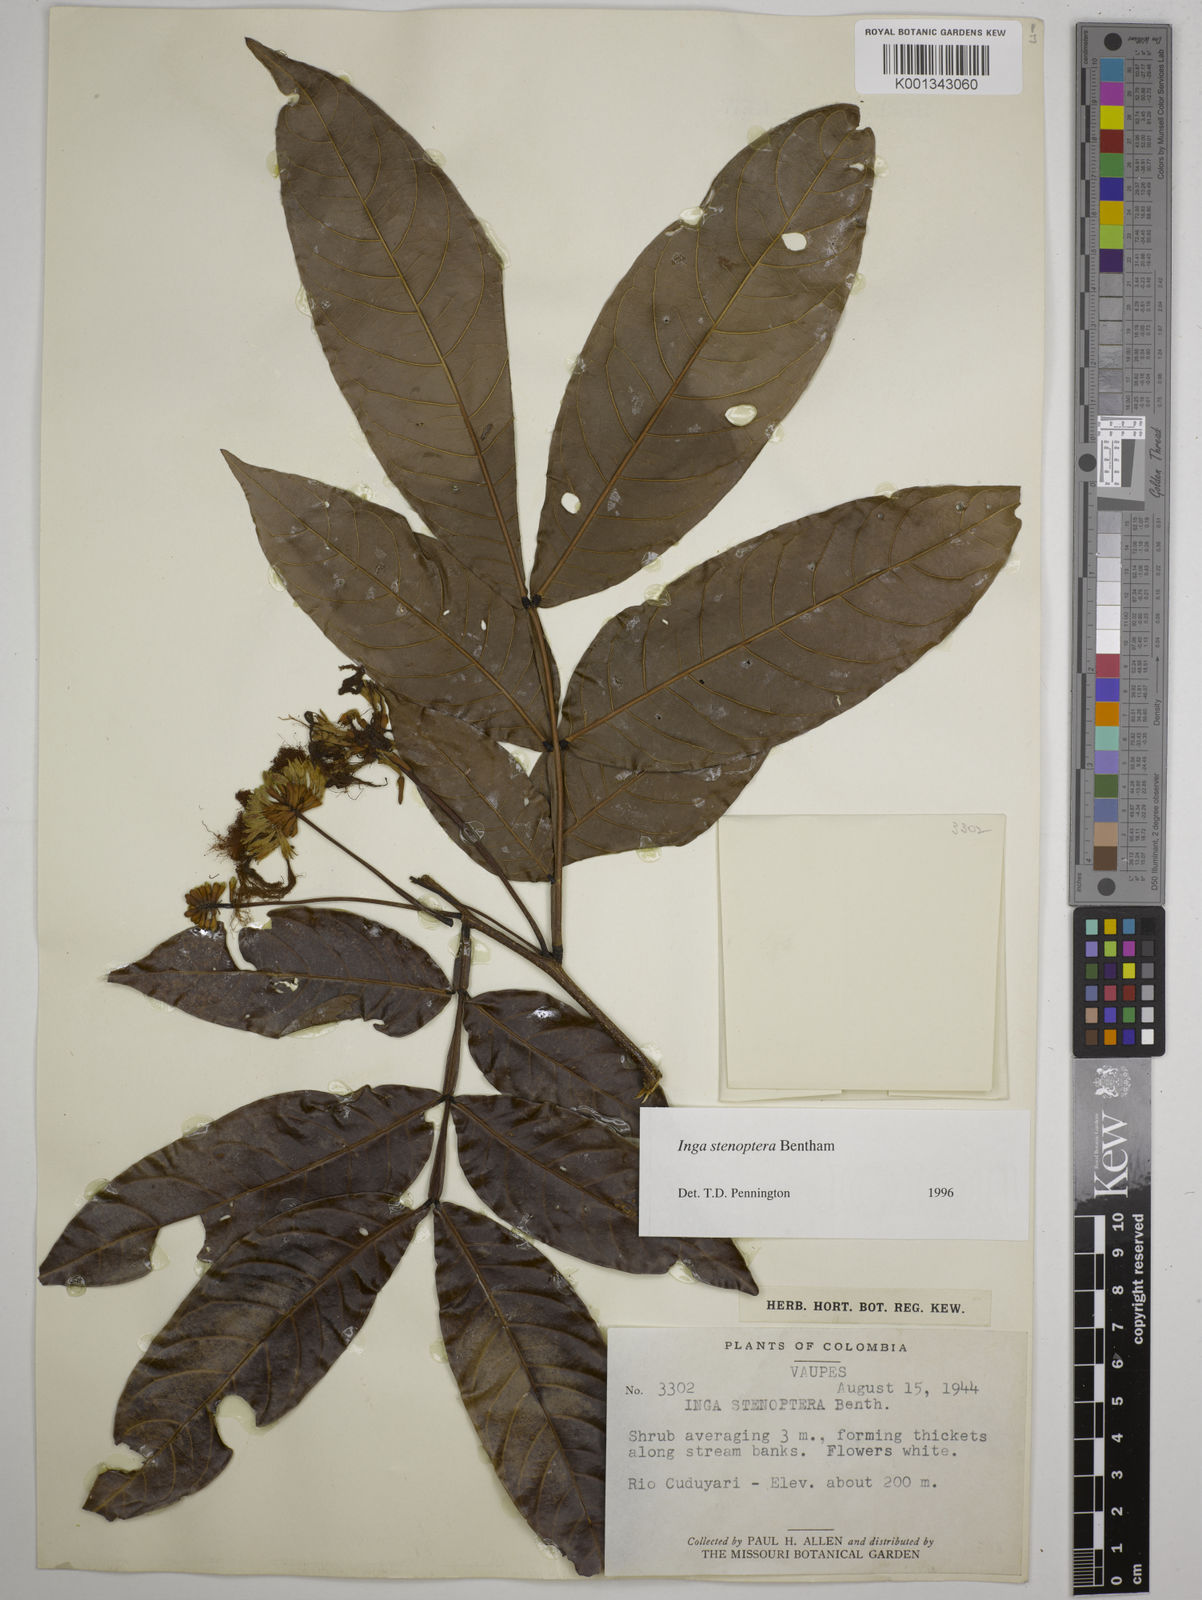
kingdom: Plantae
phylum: Tracheophyta
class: Magnoliopsida
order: Fabales
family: Fabaceae
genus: Inga
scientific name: Inga stenoptera
